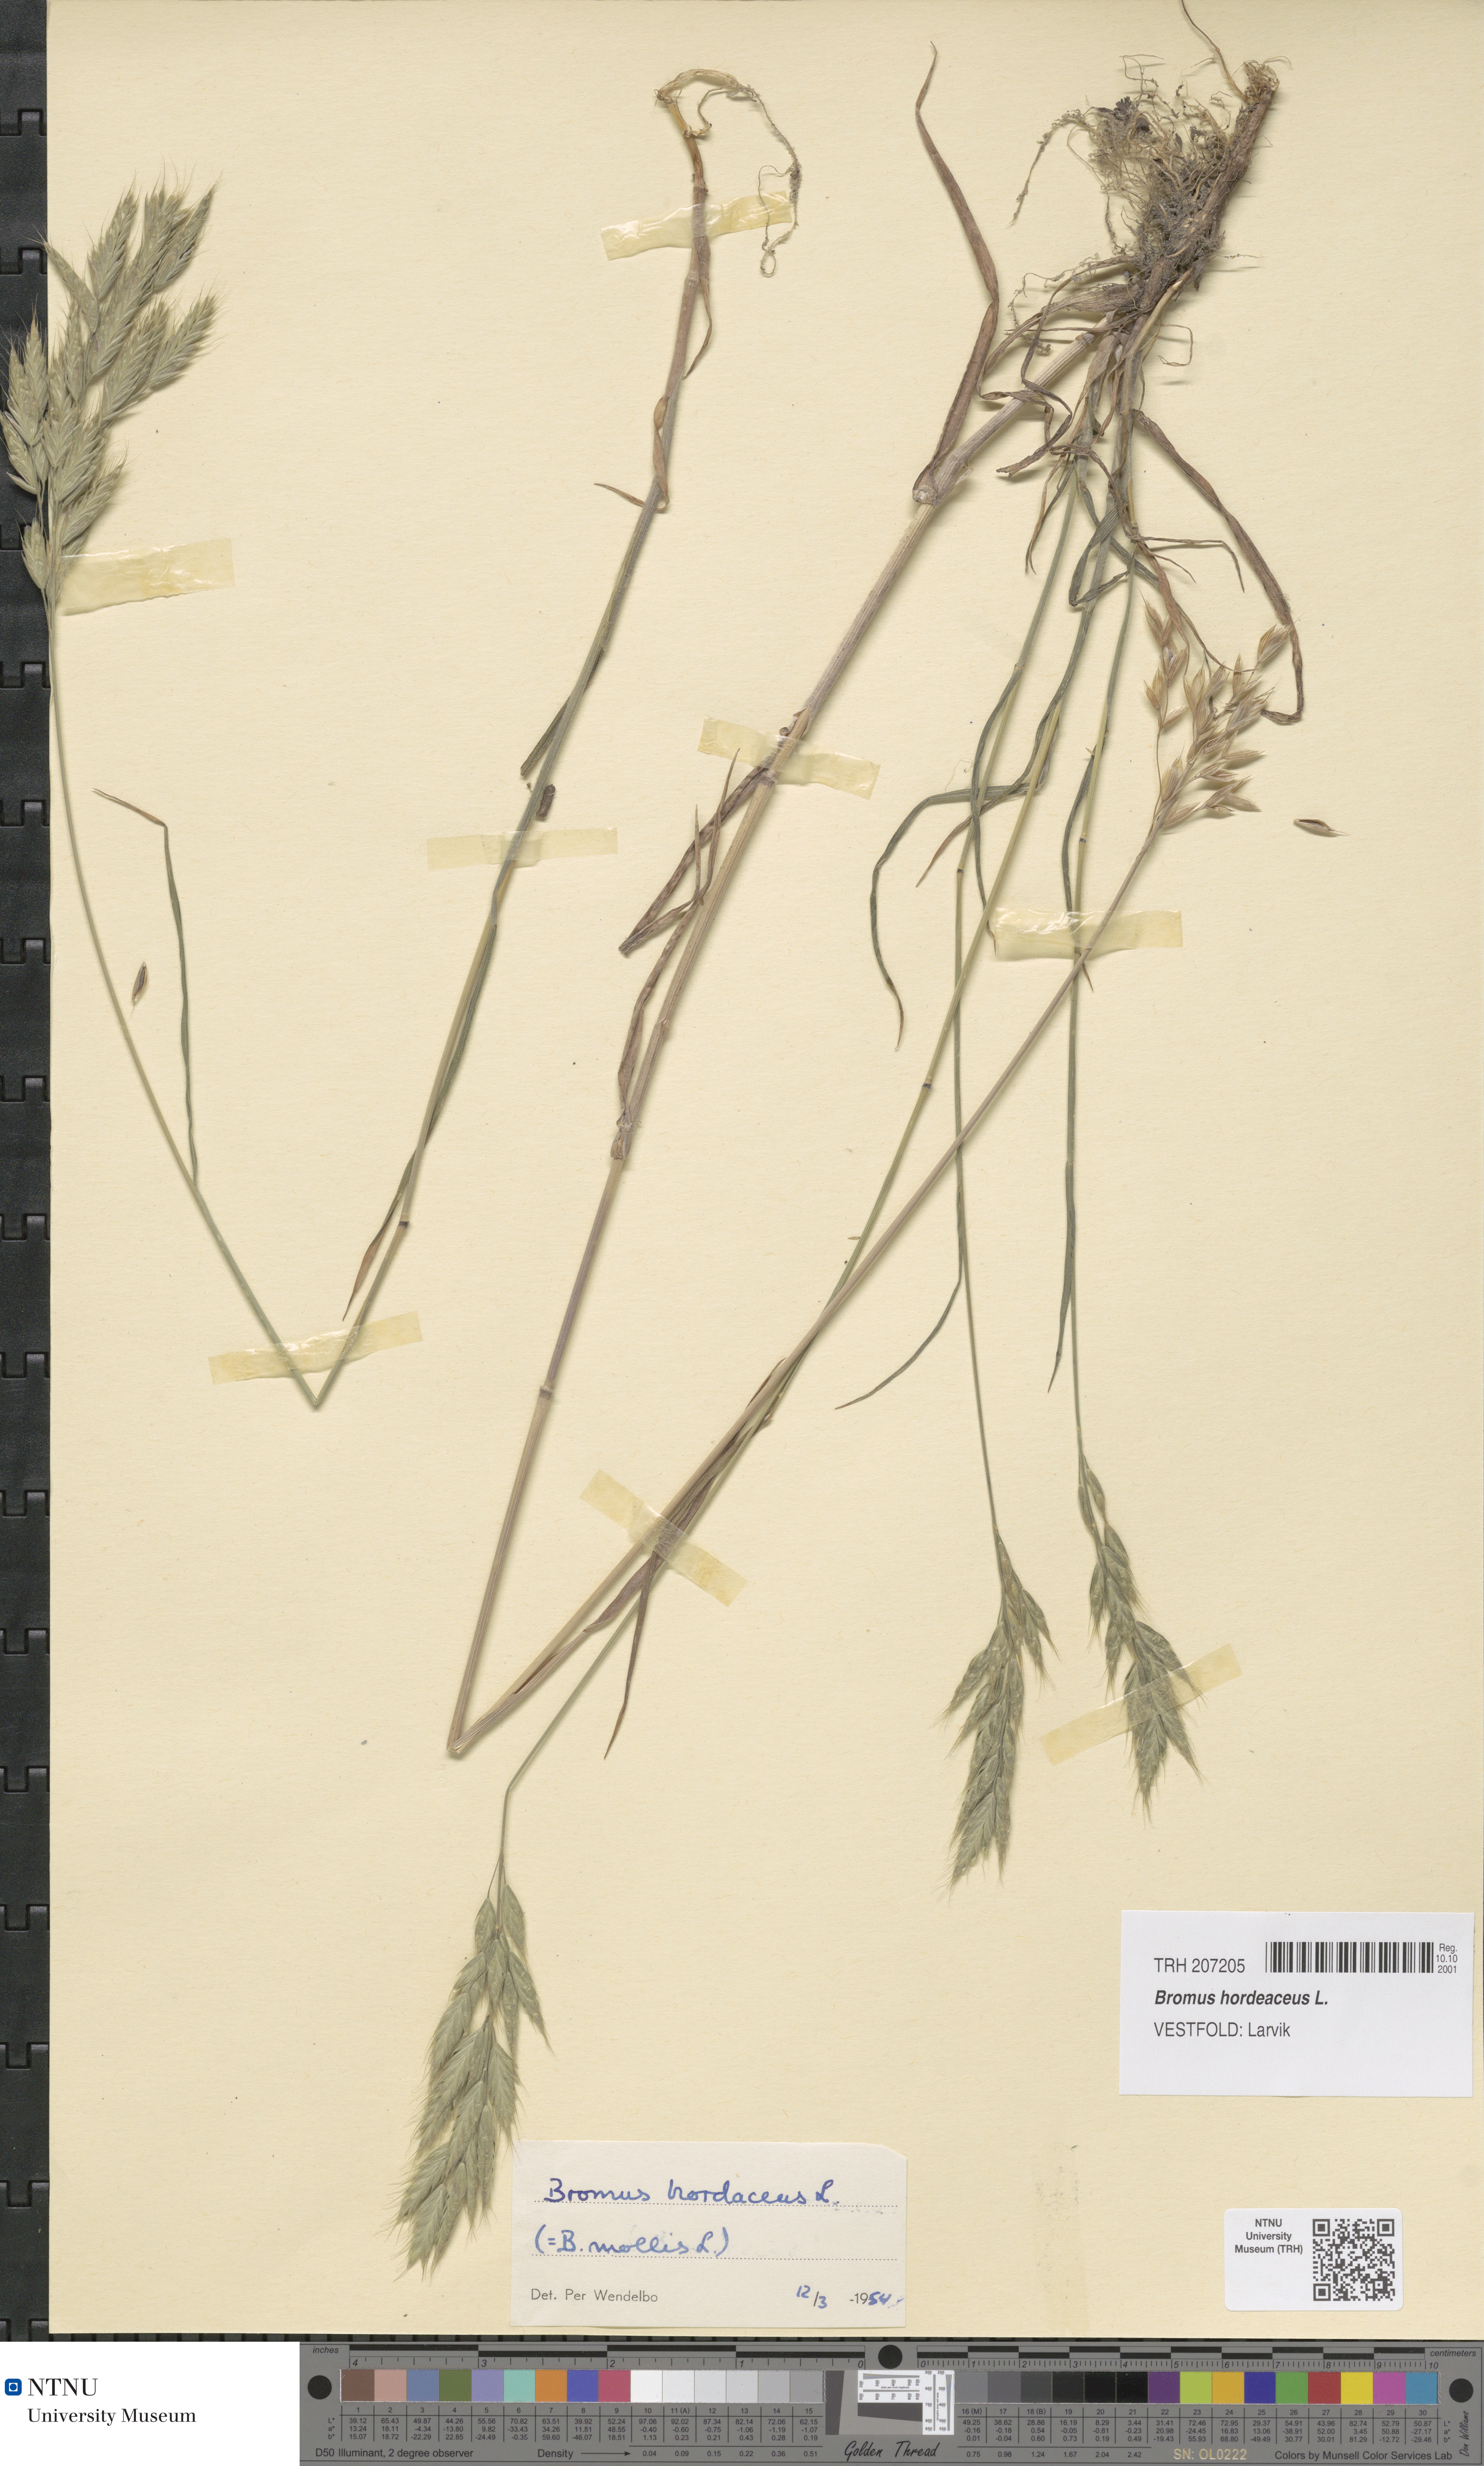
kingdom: Plantae
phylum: Tracheophyta
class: Liliopsida
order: Poales
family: Poaceae
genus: Bromus
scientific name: Bromus hordeaceus
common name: Soft brome
